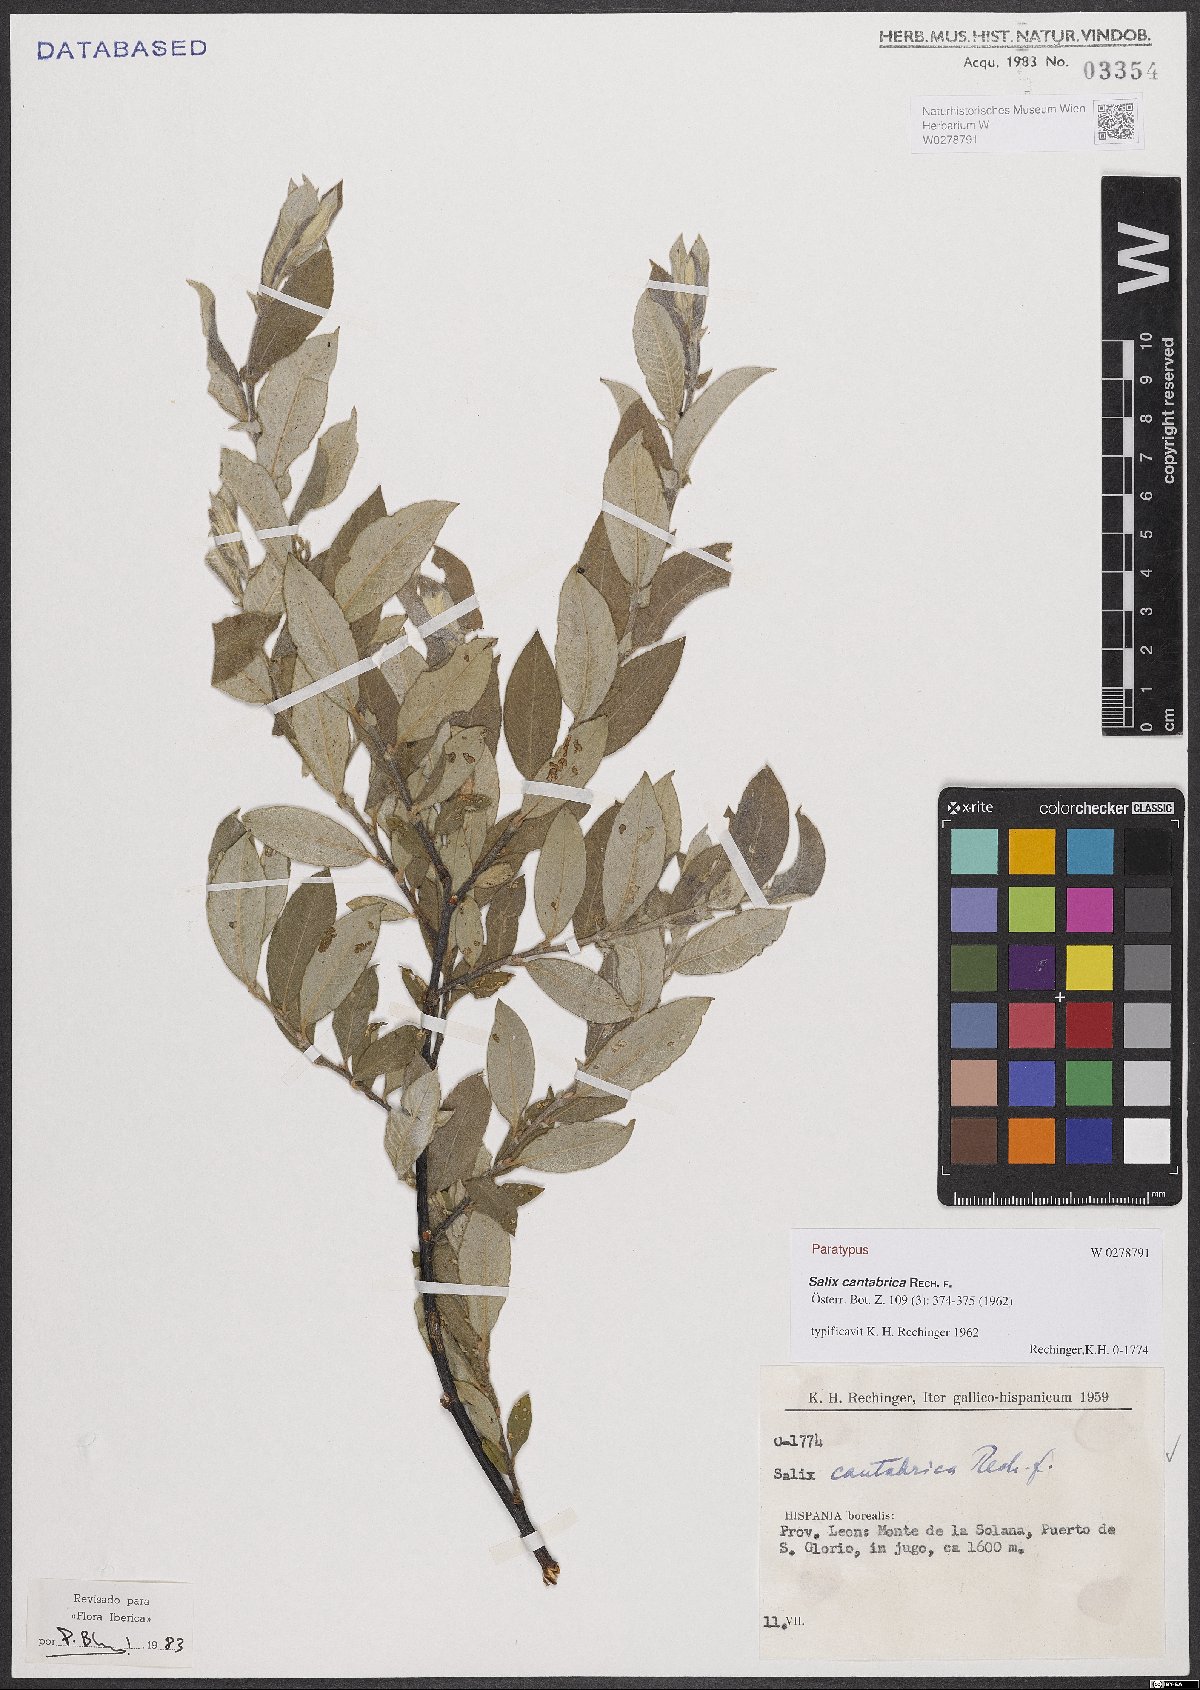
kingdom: Plantae
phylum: Tracheophyta
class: Magnoliopsida
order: Malpighiales
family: Salicaceae
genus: Salix
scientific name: Salix cantabrica
